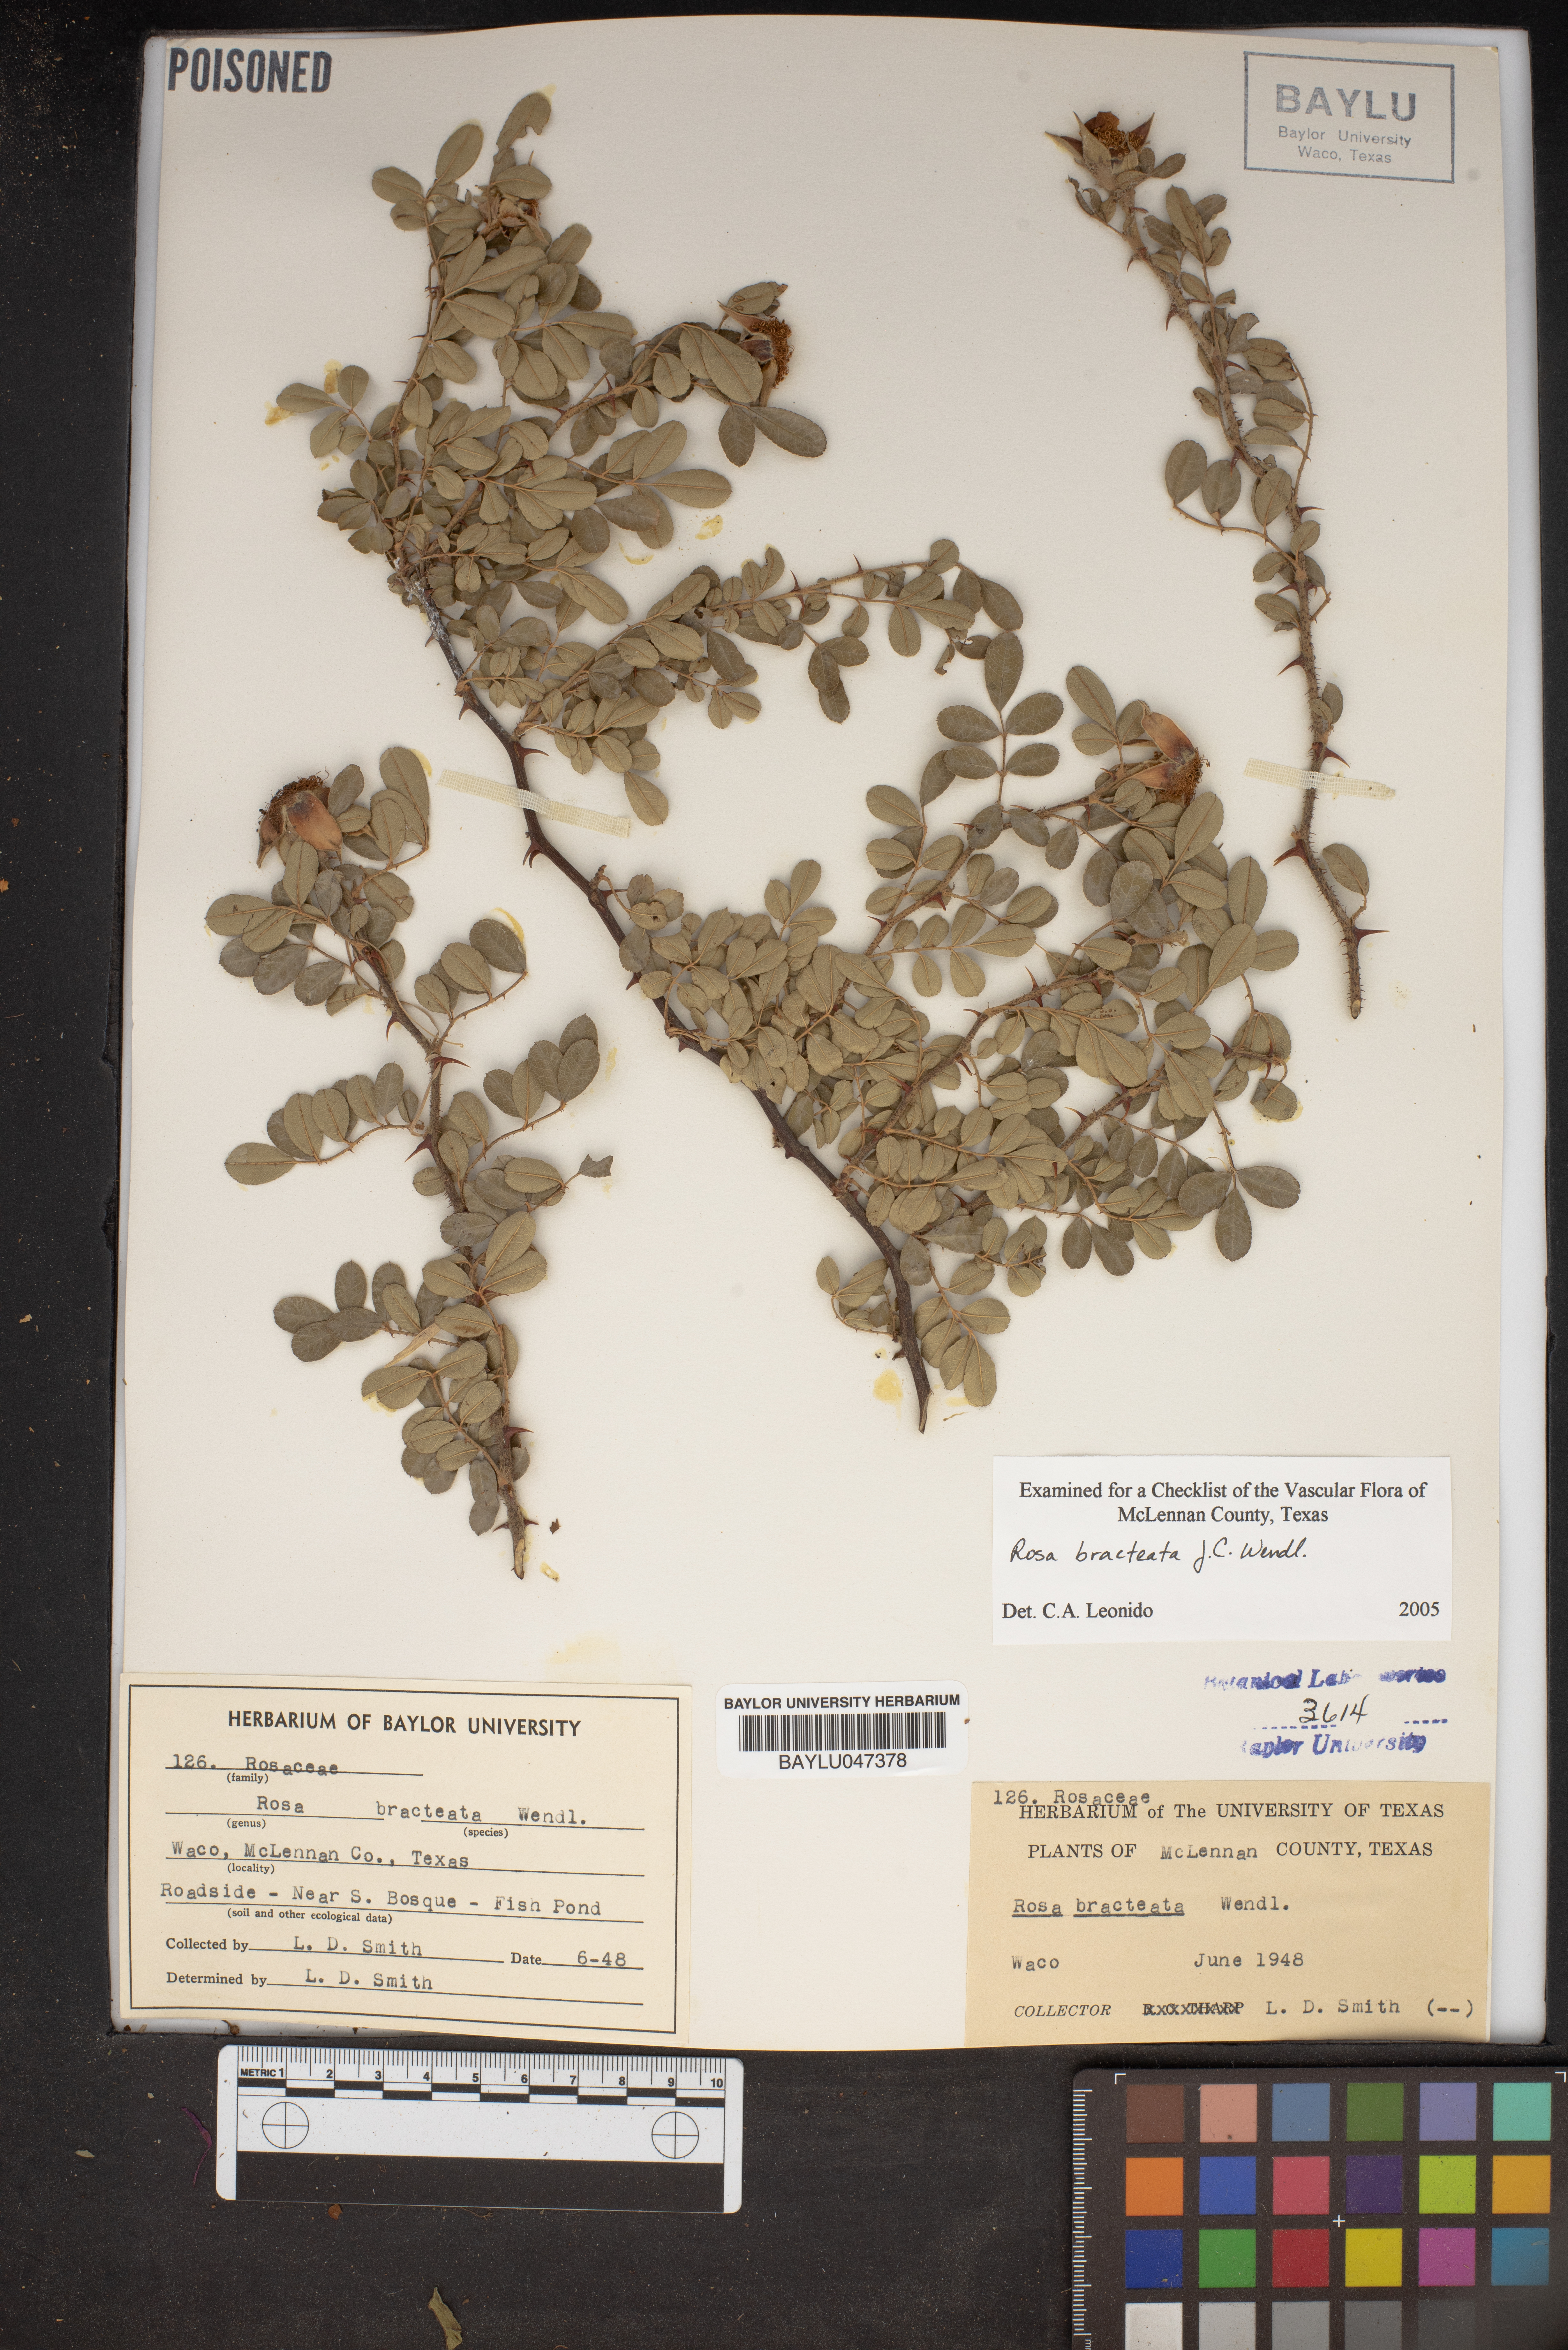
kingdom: Plantae
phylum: Tracheophyta
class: Magnoliopsida
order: Rosales
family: Rosaceae
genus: Rosa
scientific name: Rosa bracteata
